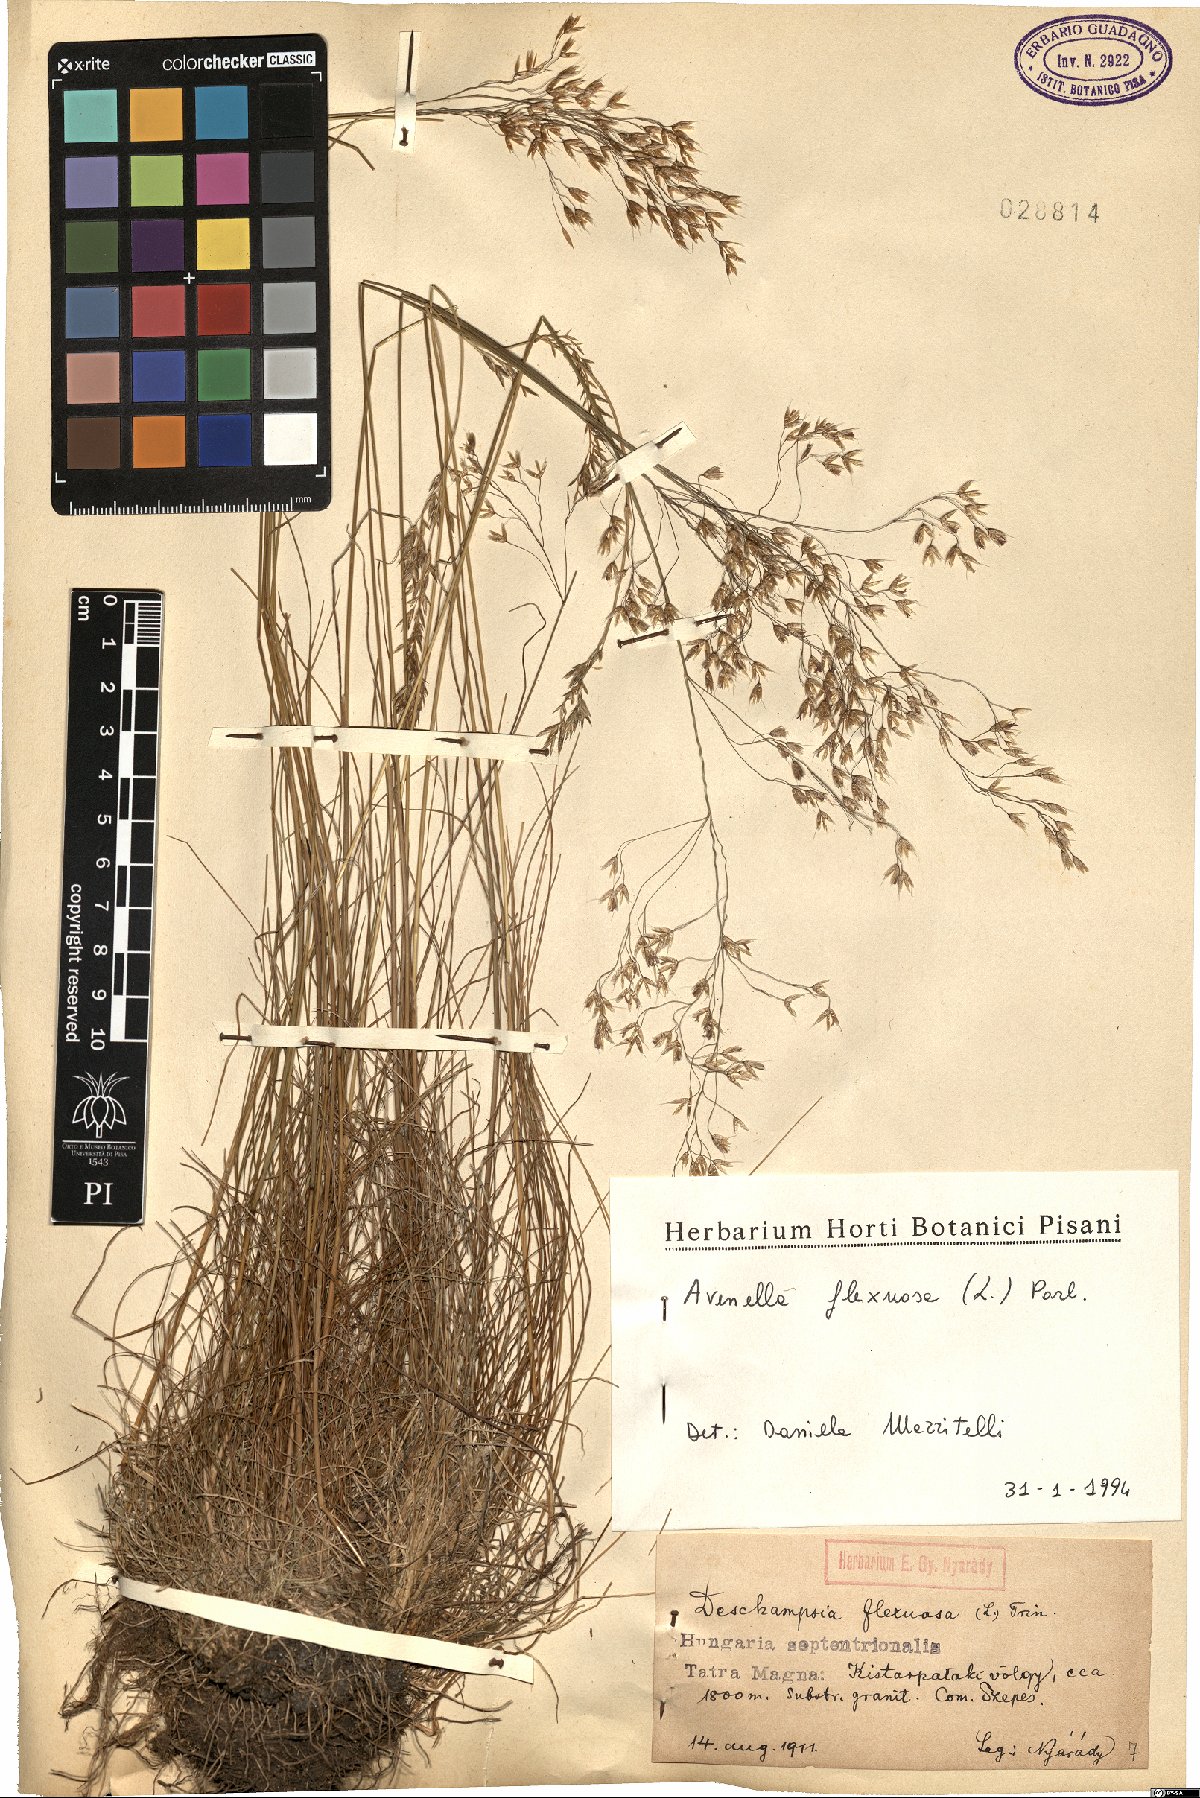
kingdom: Plantae
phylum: Tracheophyta
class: Liliopsida
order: Poales
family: Poaceae
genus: Avenella
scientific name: Avenella flexuosa
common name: Wavy hairgrass
